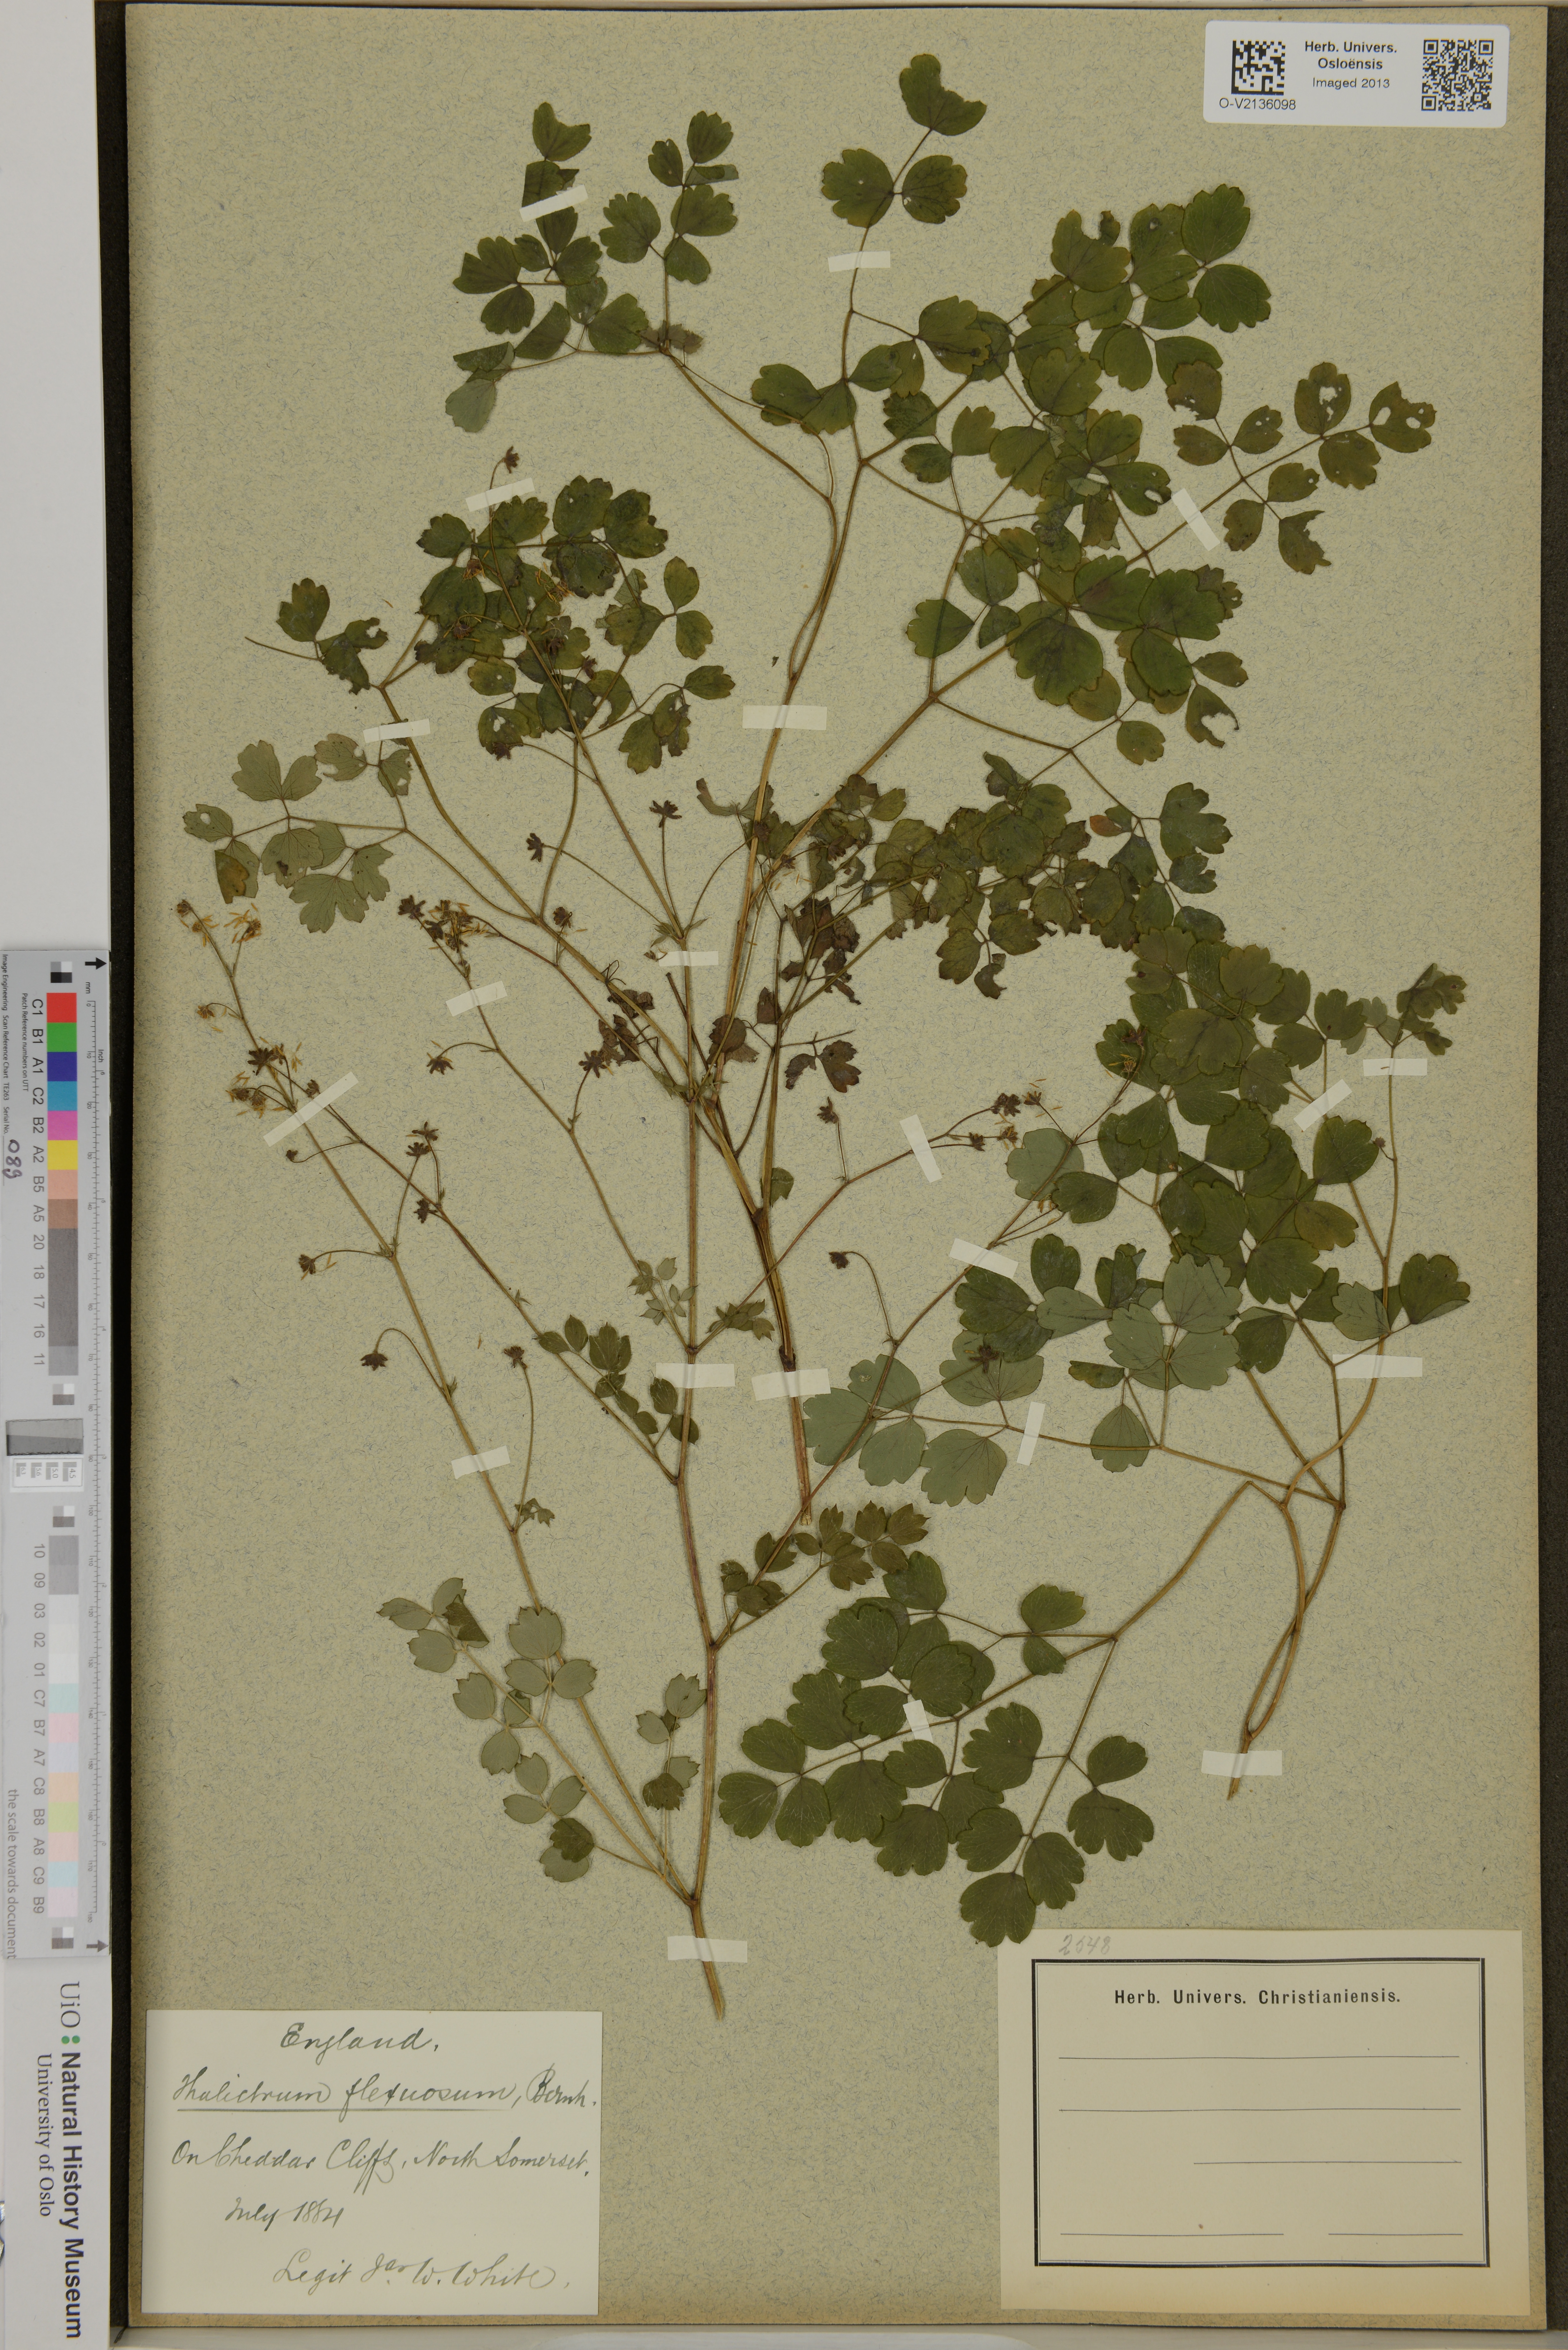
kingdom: Plantae
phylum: Tracheophyta
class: Magnoliopsida
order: Ranunculales
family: Ranunculaceae
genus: Thalictrum
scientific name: Thalictrum minus
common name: Lesser meadow-rue
